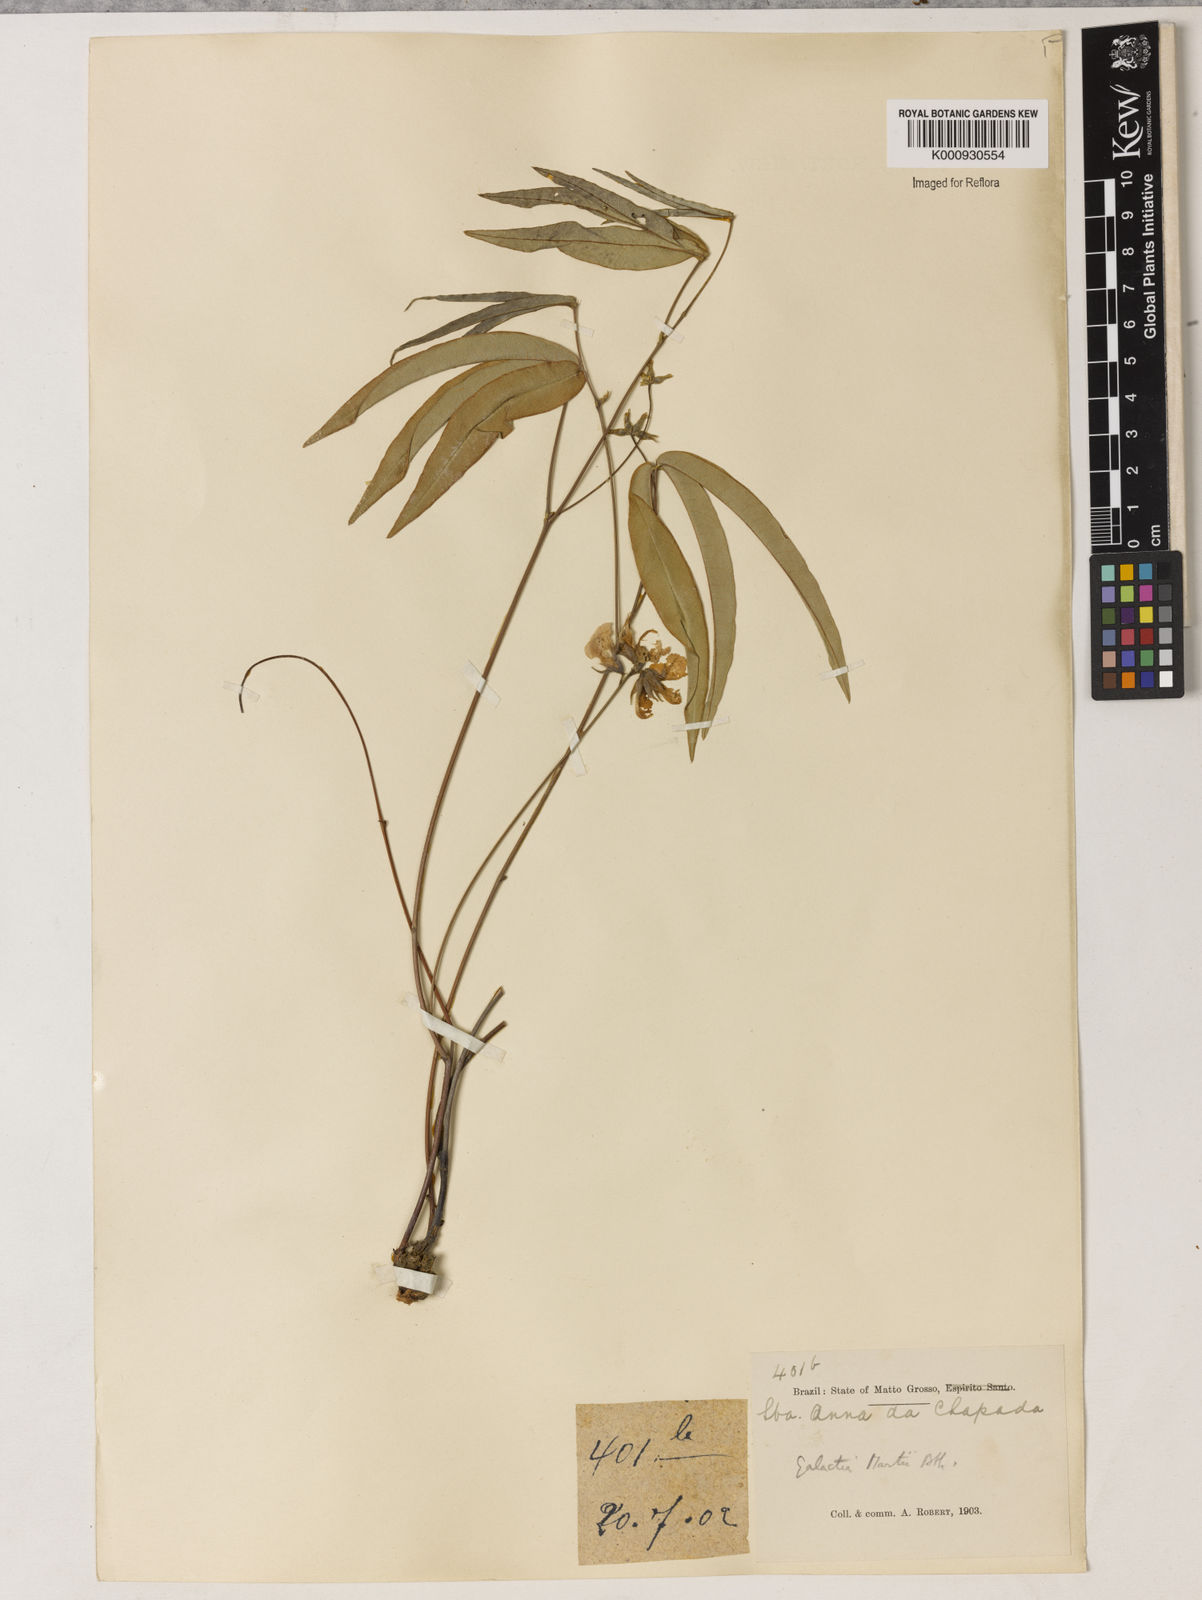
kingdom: Plantae
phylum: Tracheophyta
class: Magnoliopsida
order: Fabales
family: Fabaceae
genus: Betencourtia
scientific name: Betencourtia martii
